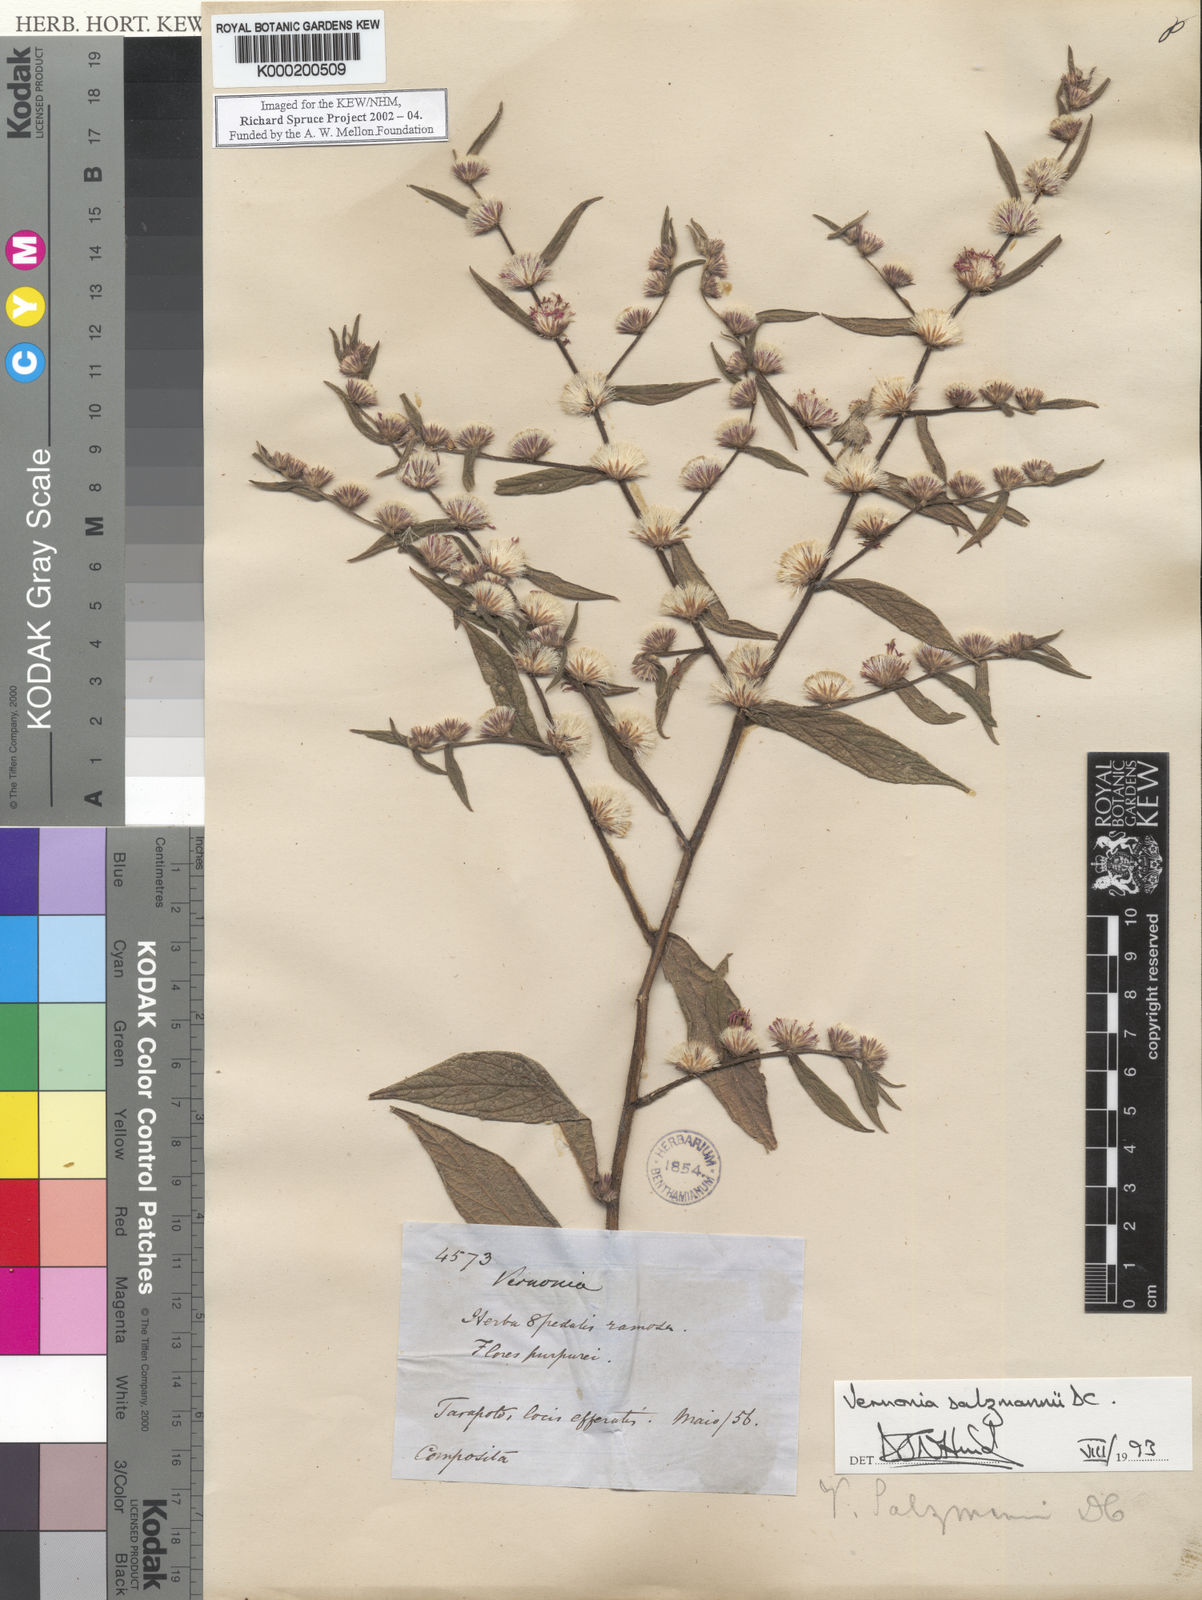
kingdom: Plantae
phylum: Tracheophyta
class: Magnoliopsida
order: Asterales
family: Asteraceae
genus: Lepidaploa
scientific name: Lepidaploa salzmannii
